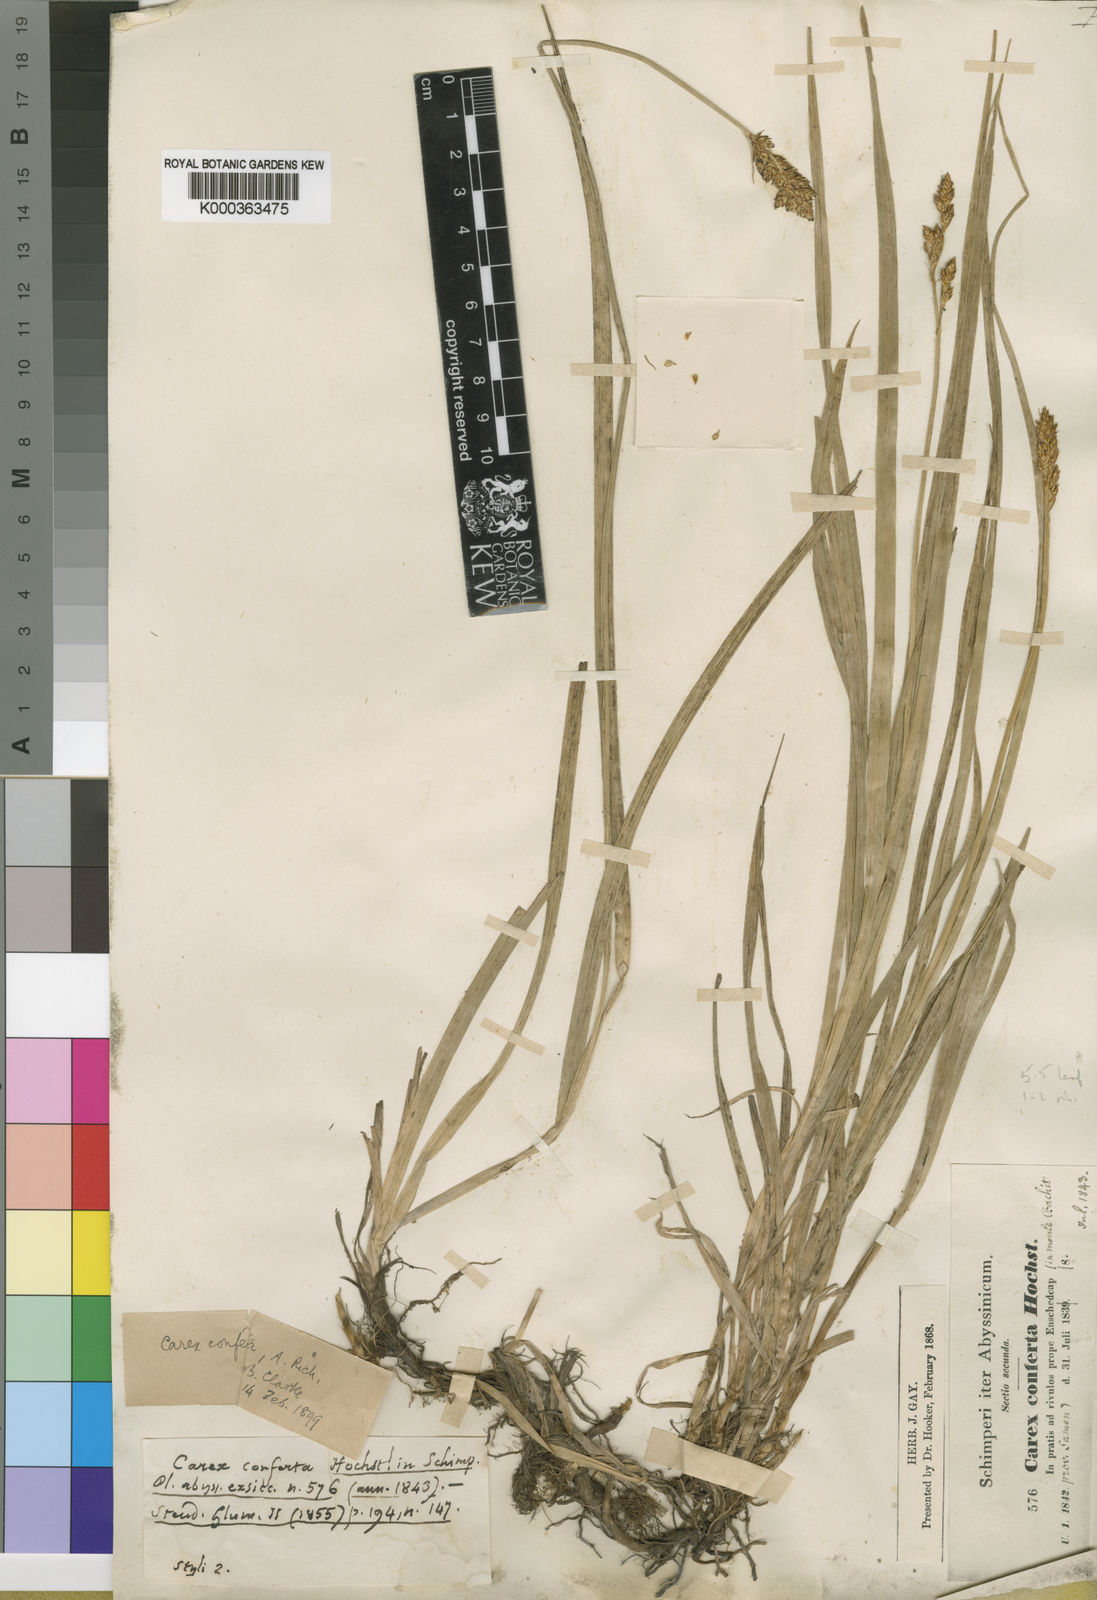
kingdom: Plantae
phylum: Tracheophyta
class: Liliopsida
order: Poales
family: Cyperaceae
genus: Carex
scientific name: Carex conferta
